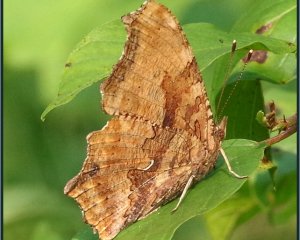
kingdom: Animalia
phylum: Arthropoda
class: Insecta
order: Lepidoptera
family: Nymphalidae
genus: Polygonia
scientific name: Polygonia comma
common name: Eastern Comma
